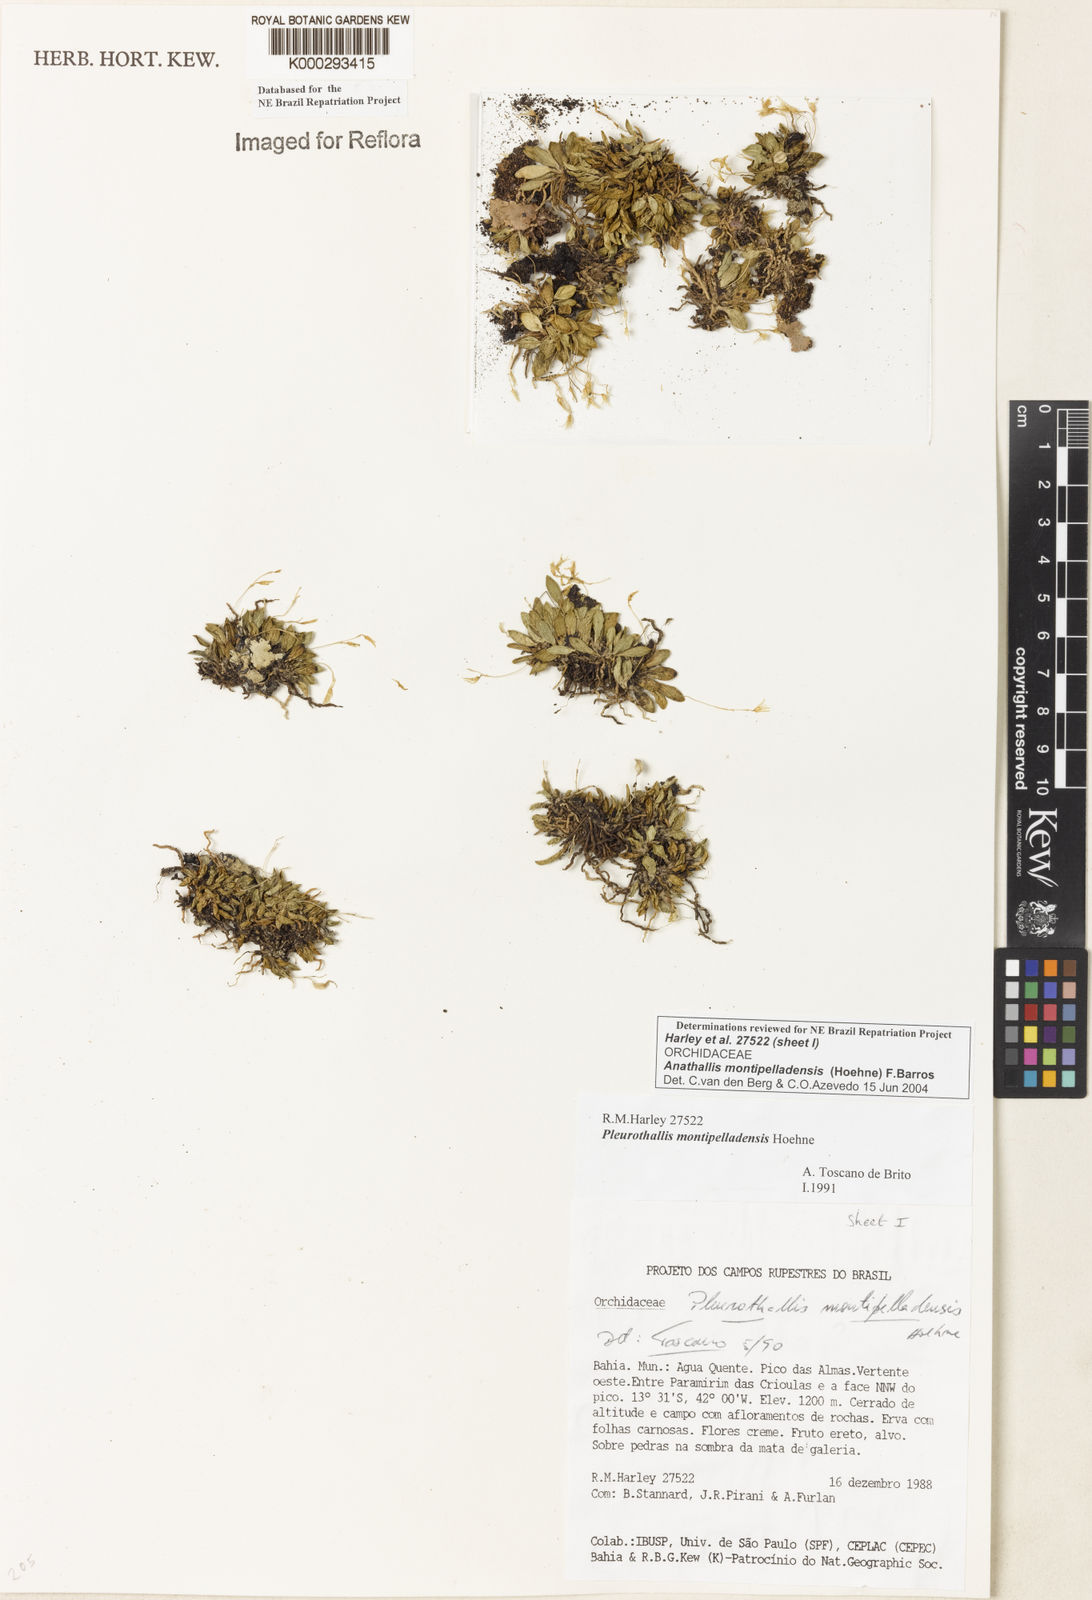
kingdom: Plantae
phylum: Tracheophyta
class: Liliopsida
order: Asparagales
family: Orchidaceae
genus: Anathallis
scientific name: Anathallis montipelladensis
